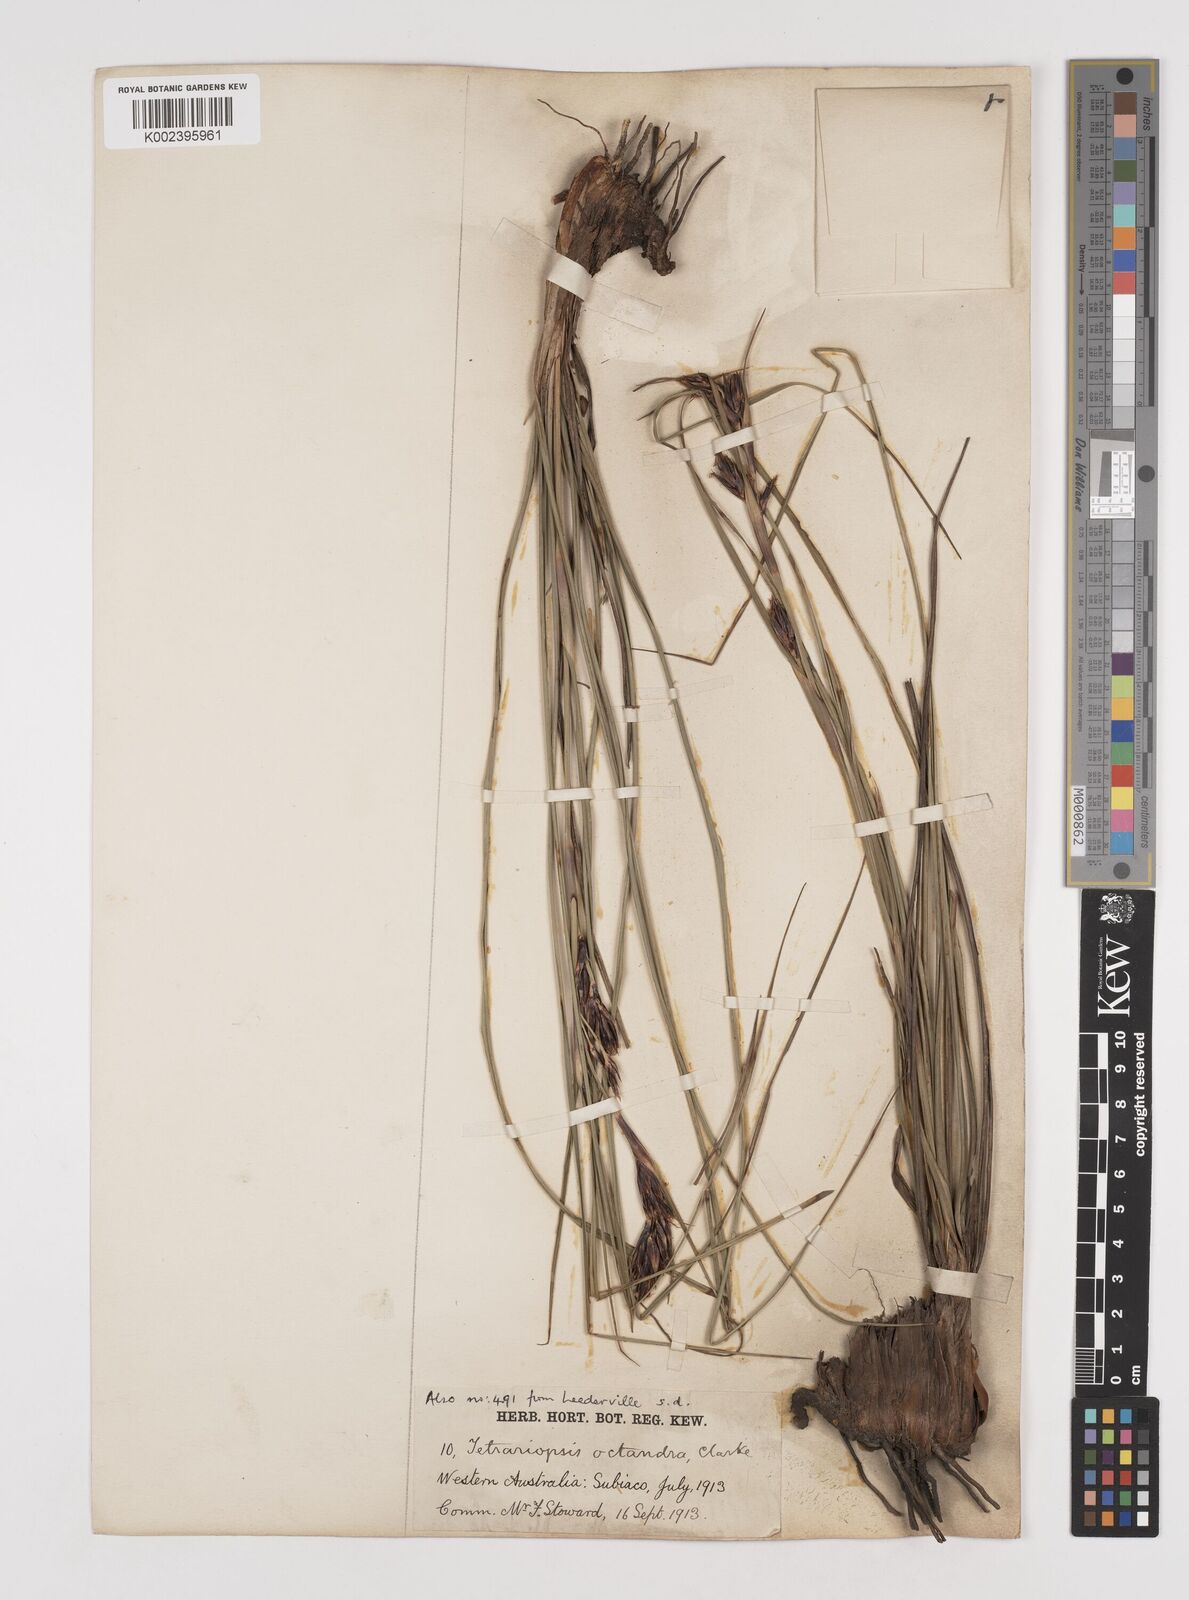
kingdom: Plantae
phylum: Tracheophyta
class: Liliopsida
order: Poales
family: Cyperaceae
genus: Tetraria
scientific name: Tetraria octandra
